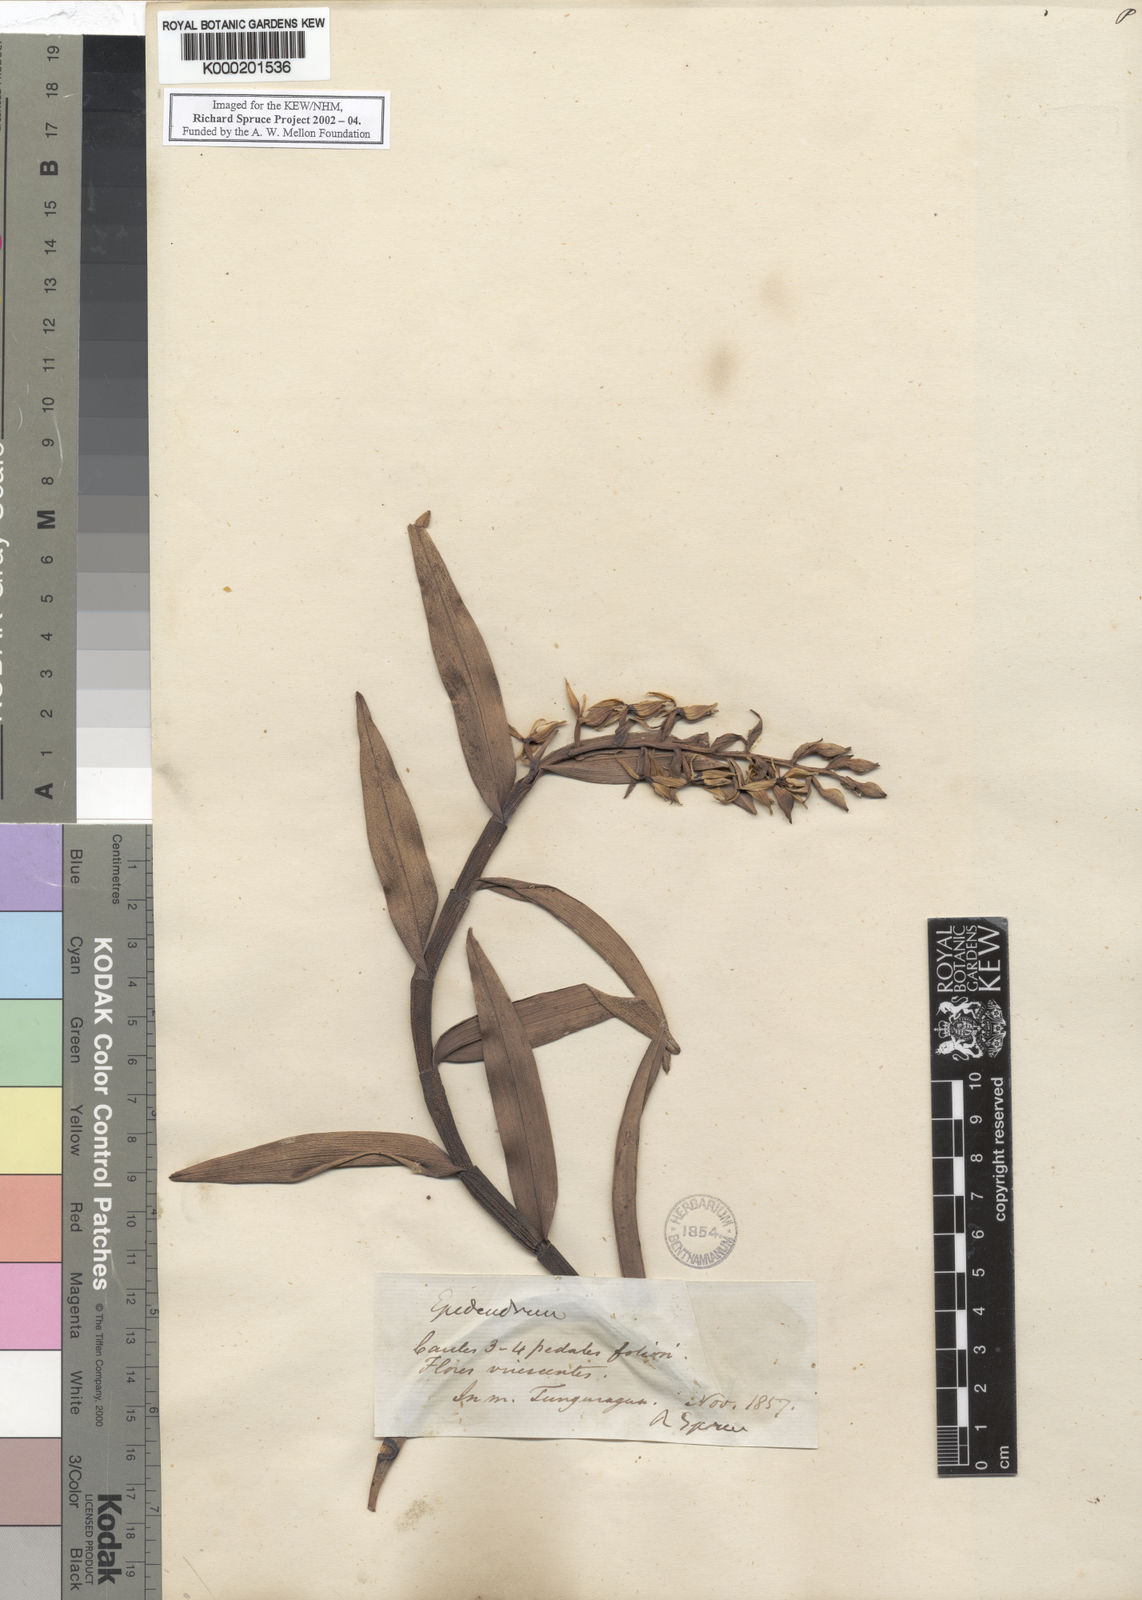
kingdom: Plantae
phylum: Tracheophyta
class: Liliopsida
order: Asparagales
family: Orchidaceae
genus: Epidendrum
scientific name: Epidendrum
